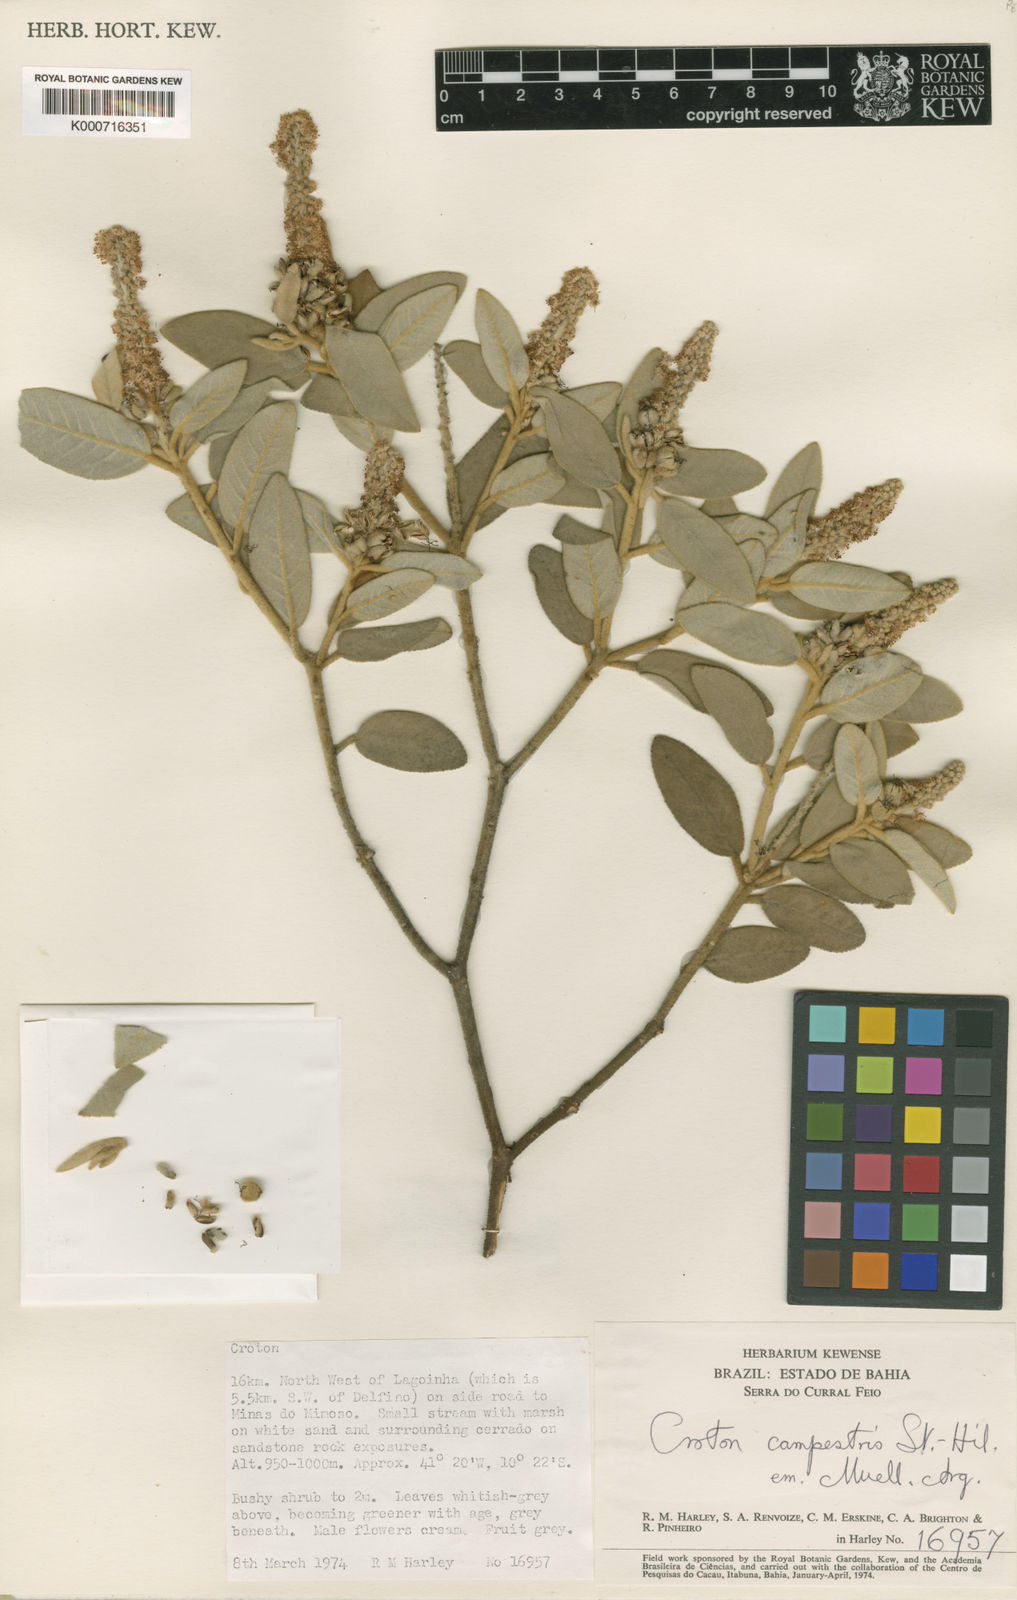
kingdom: Plantae
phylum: Tracheophyta
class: Magnoliopsida
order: Malpighiales
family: Euphorbiaceae
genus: Croton
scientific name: Croton campestris
